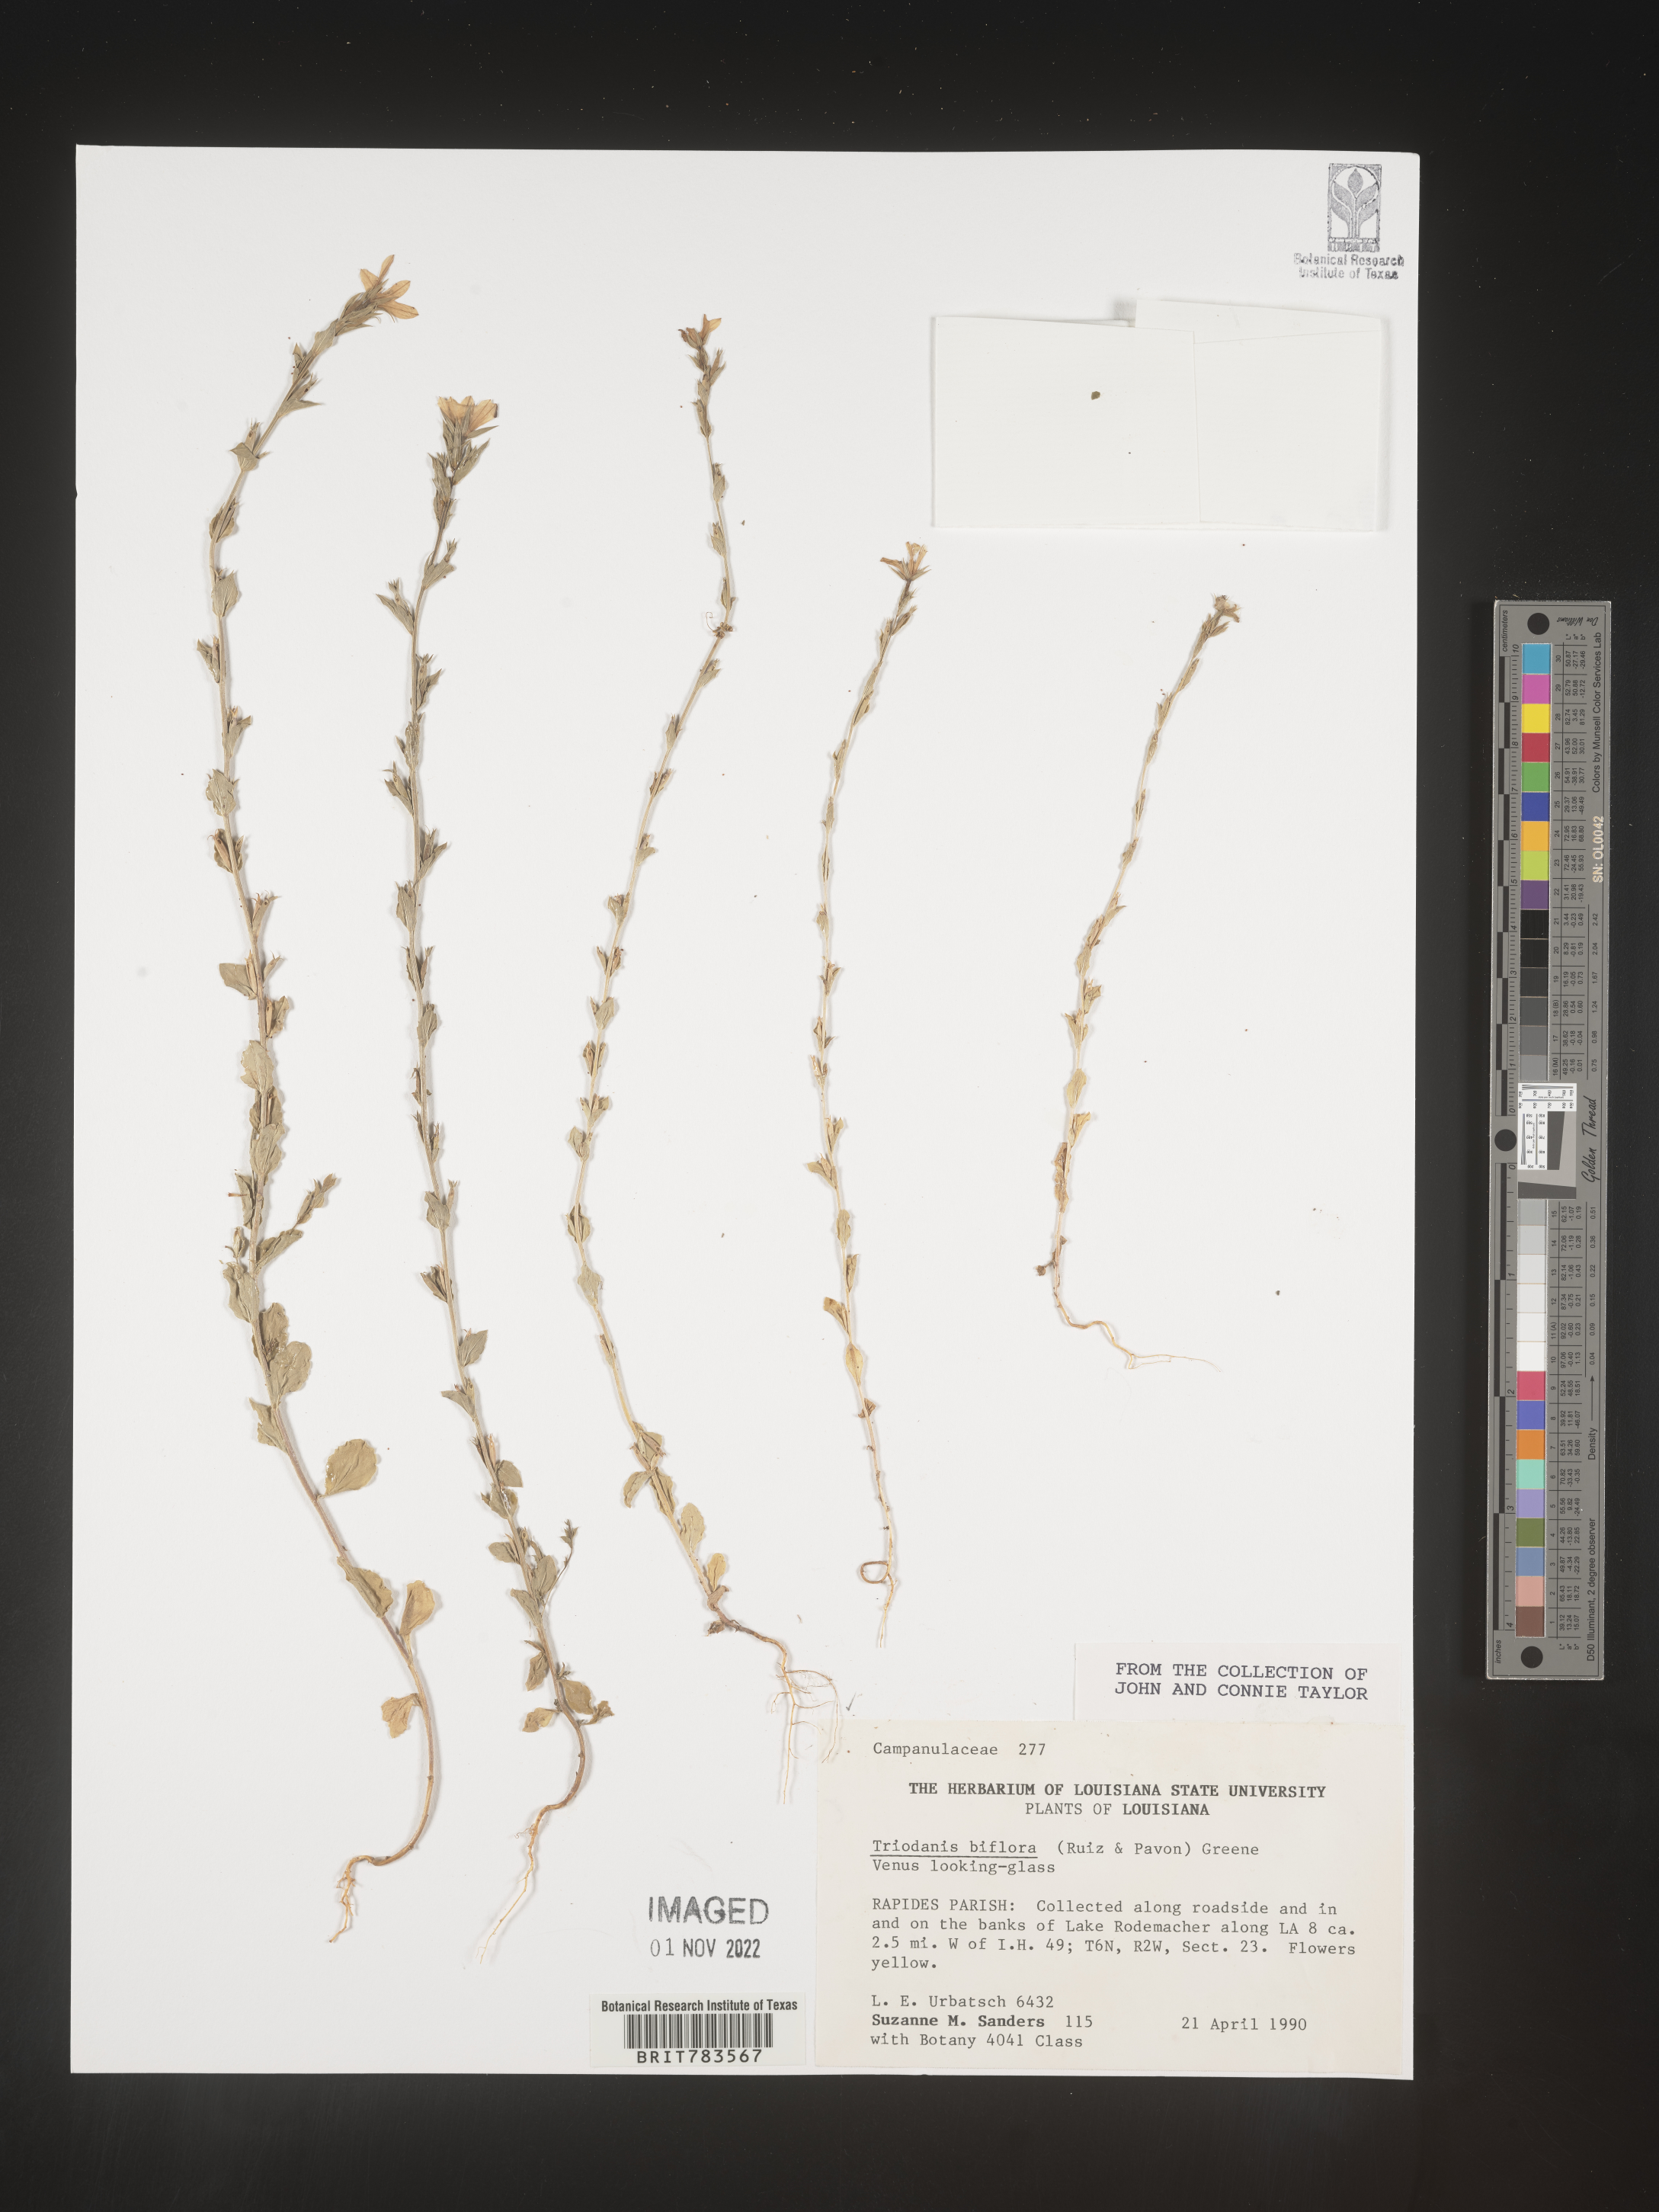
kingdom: Plantae
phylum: Tracheophyta
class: Magnoliopsida
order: Asterales
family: Campanulaceae
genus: Triodanis
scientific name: Triodanis perfoliata
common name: Clasping venus' looking-glass
